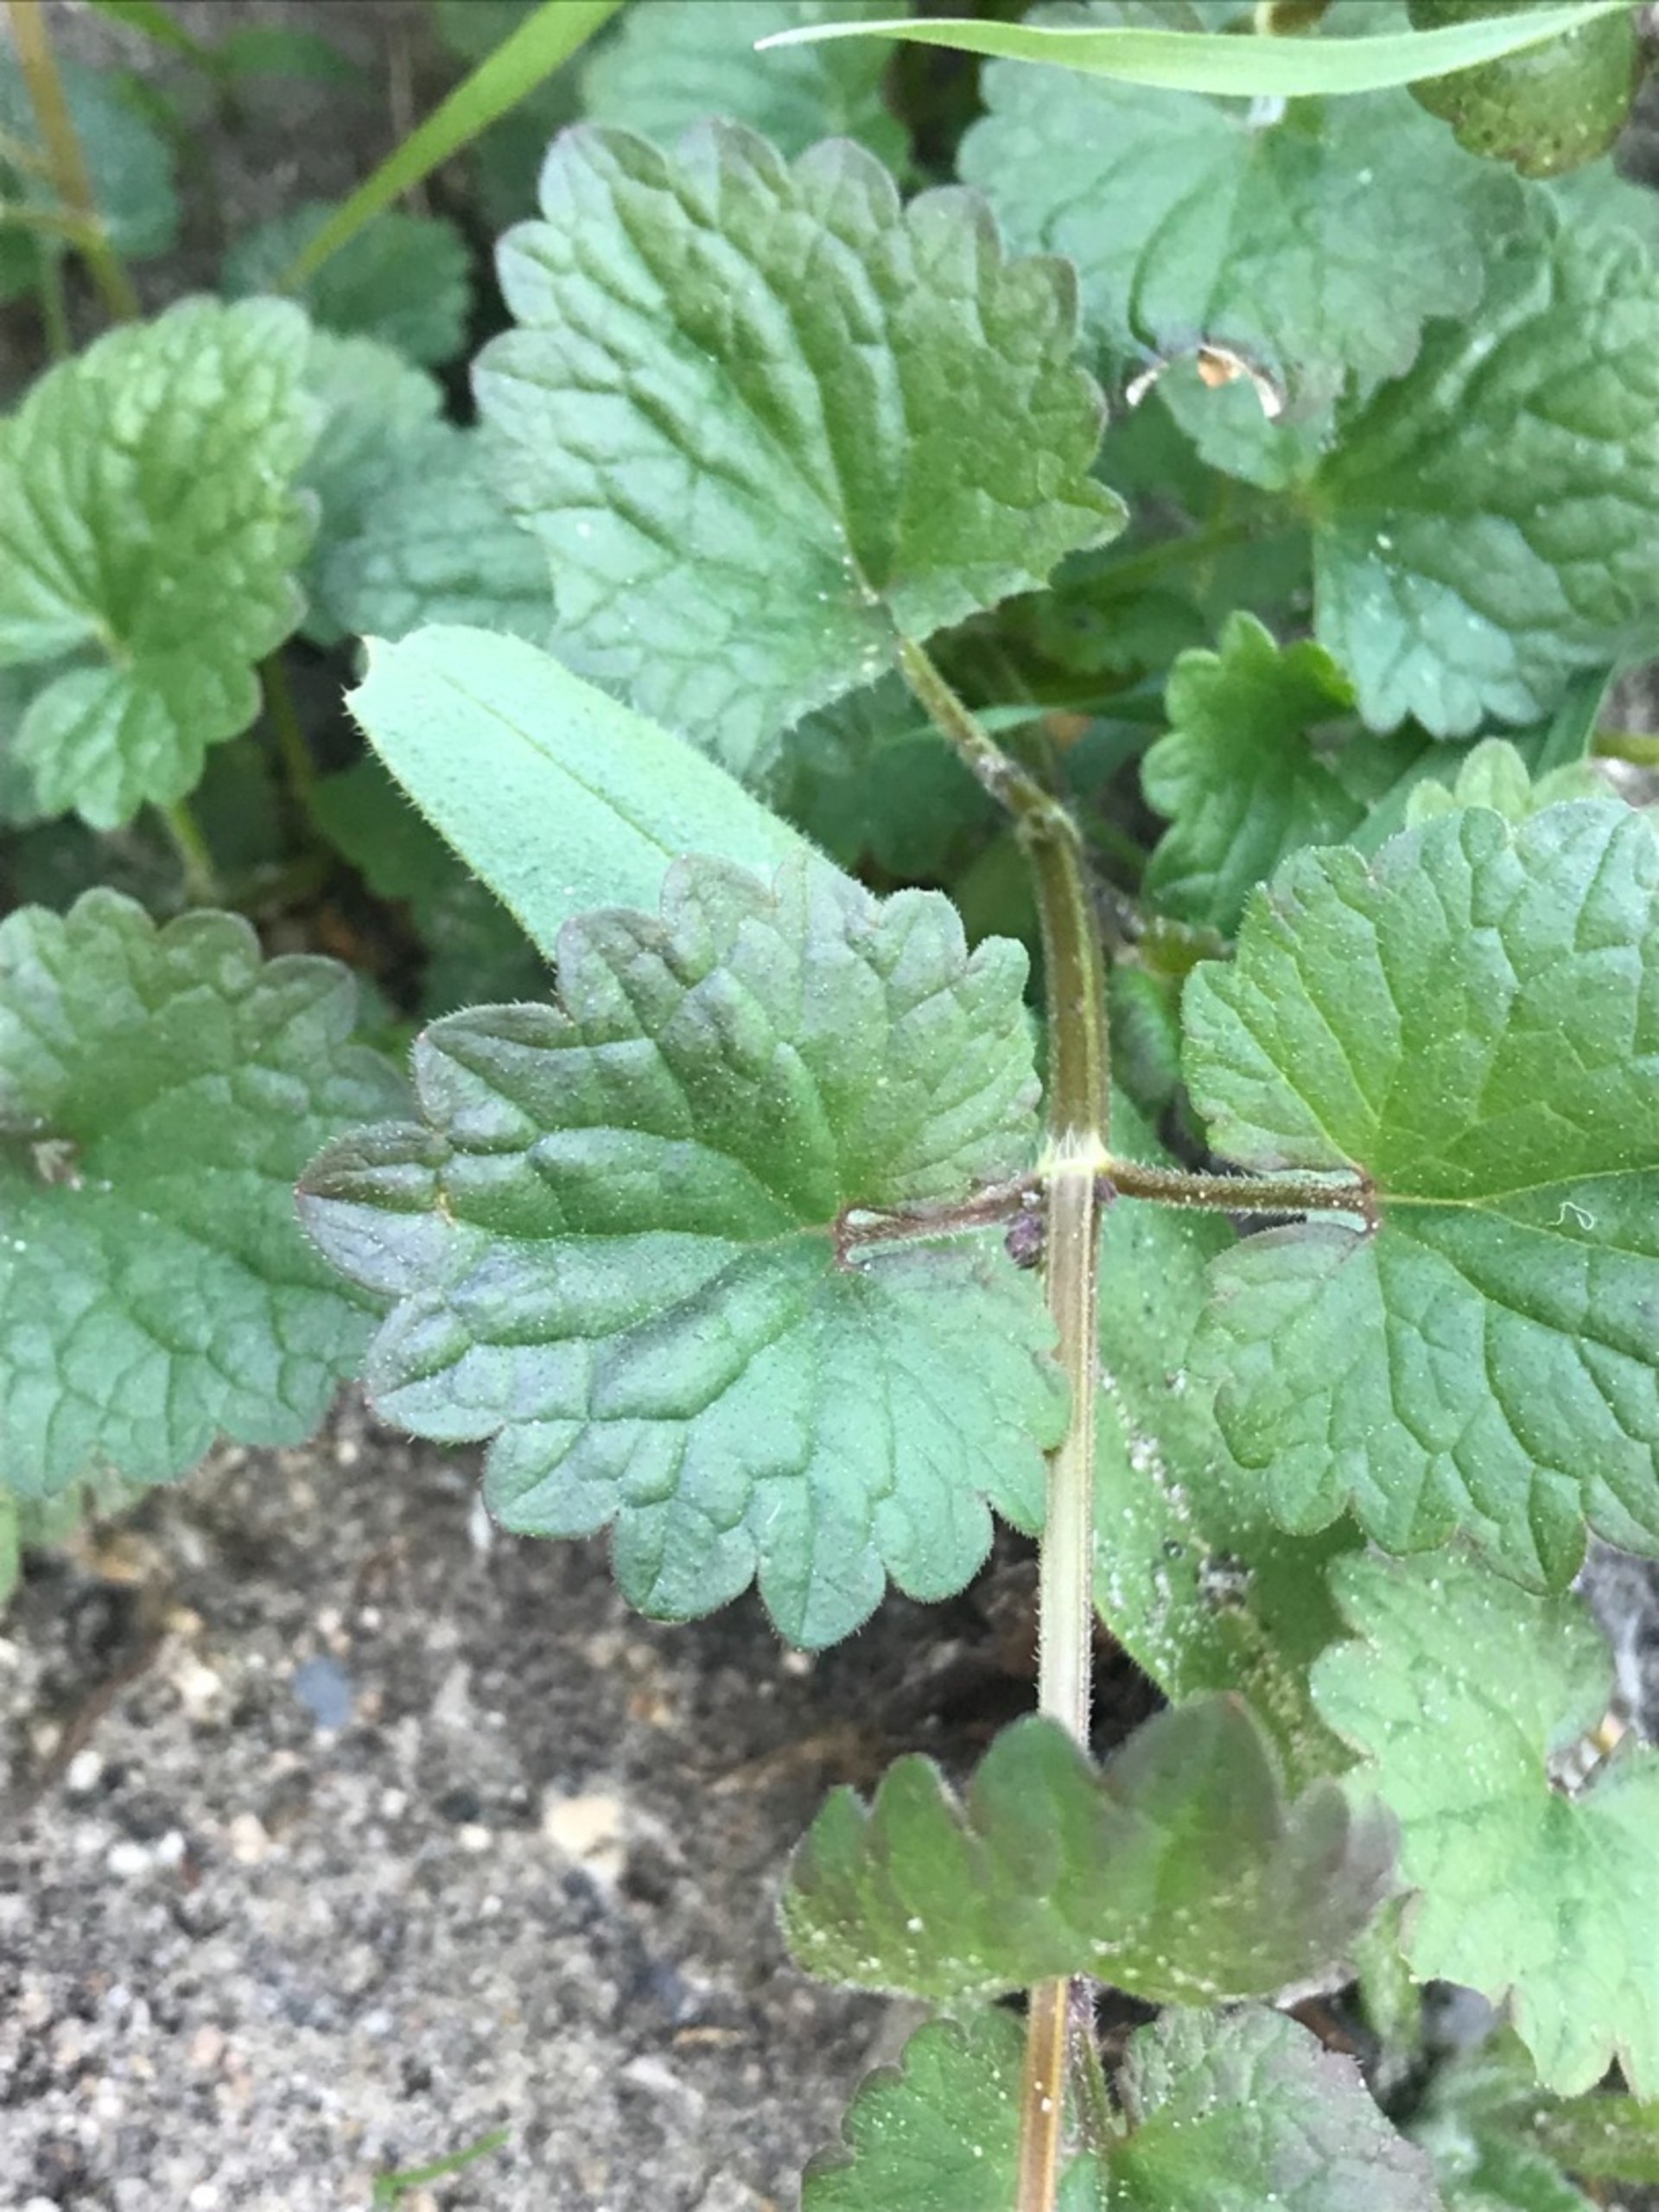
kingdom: Plantae
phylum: Tracheophyta
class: Magnoliopsida
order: Lamiales
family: Lamiaceae
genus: Glechoma
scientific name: Glechoma hederacea
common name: Korsknap
